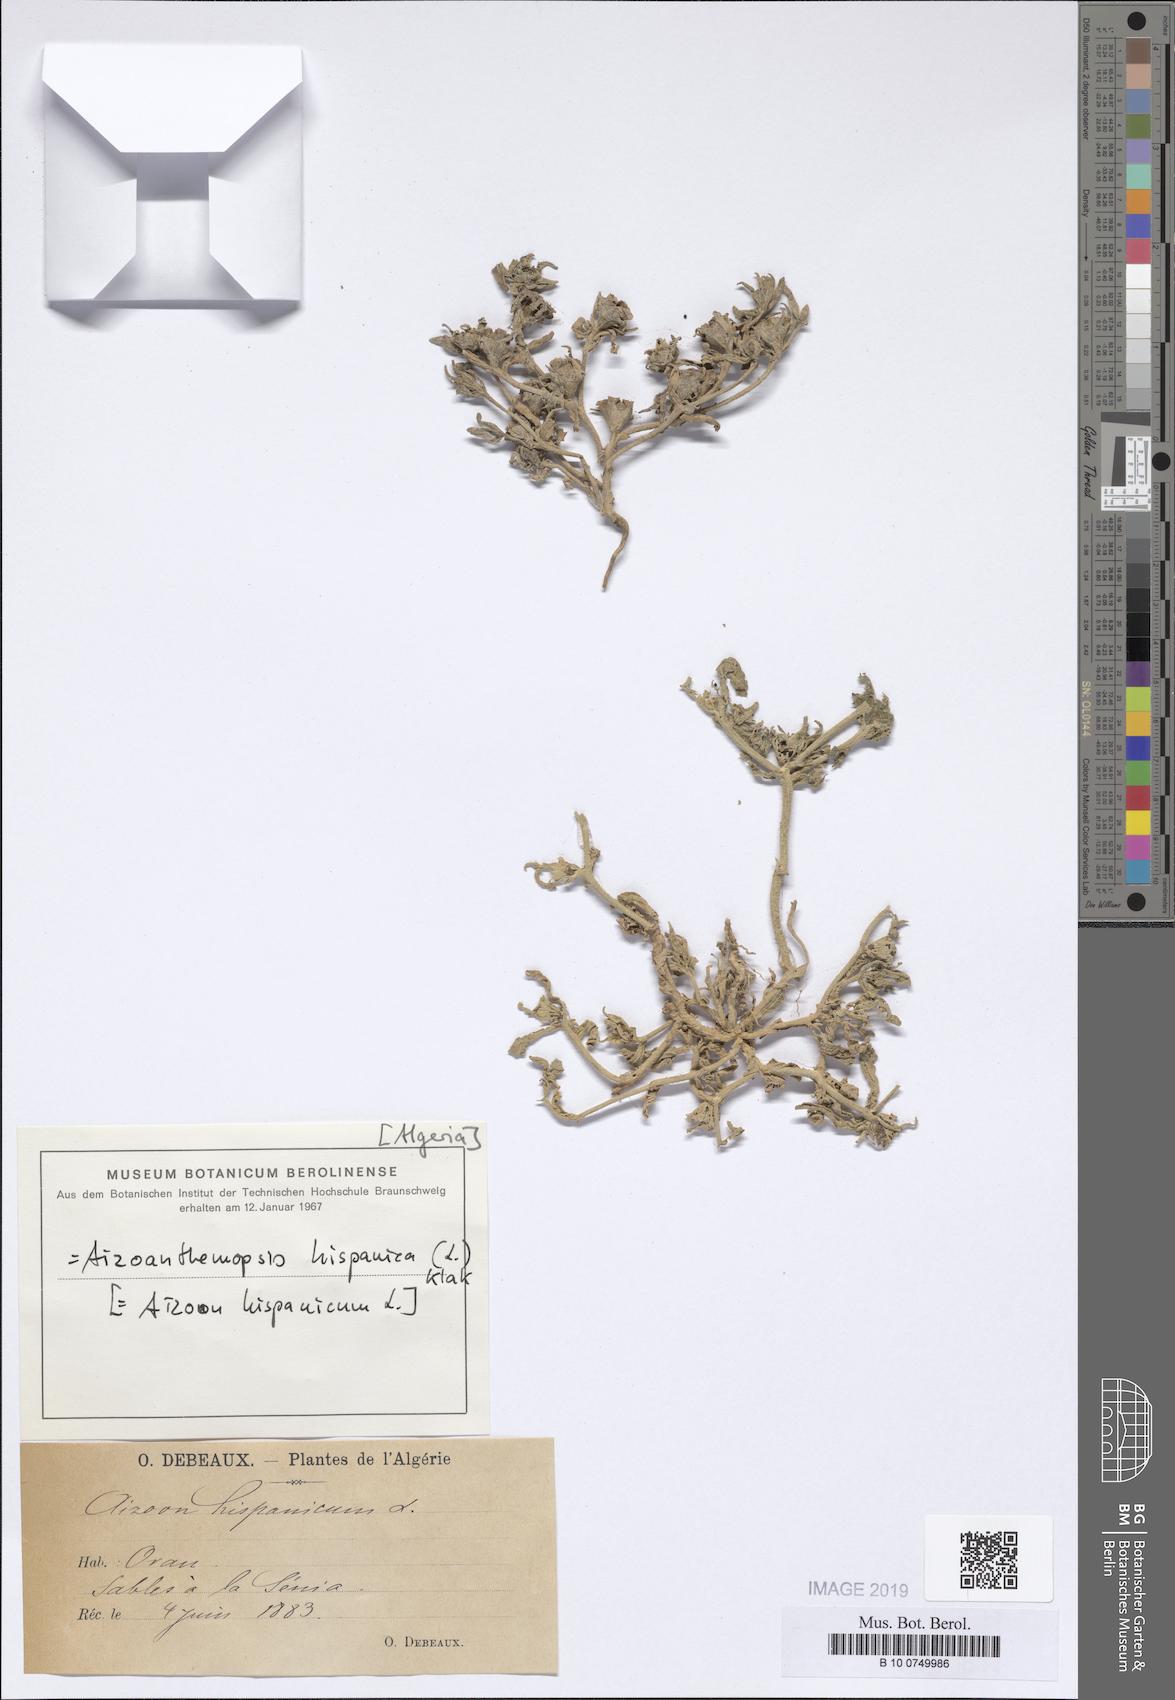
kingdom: Plantae
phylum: Tracheophyta
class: Magnoliopsida
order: Caryophyllales
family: Aizoaceae
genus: Aizoanthemopsis
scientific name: Aizoanthemopsis hispanica
